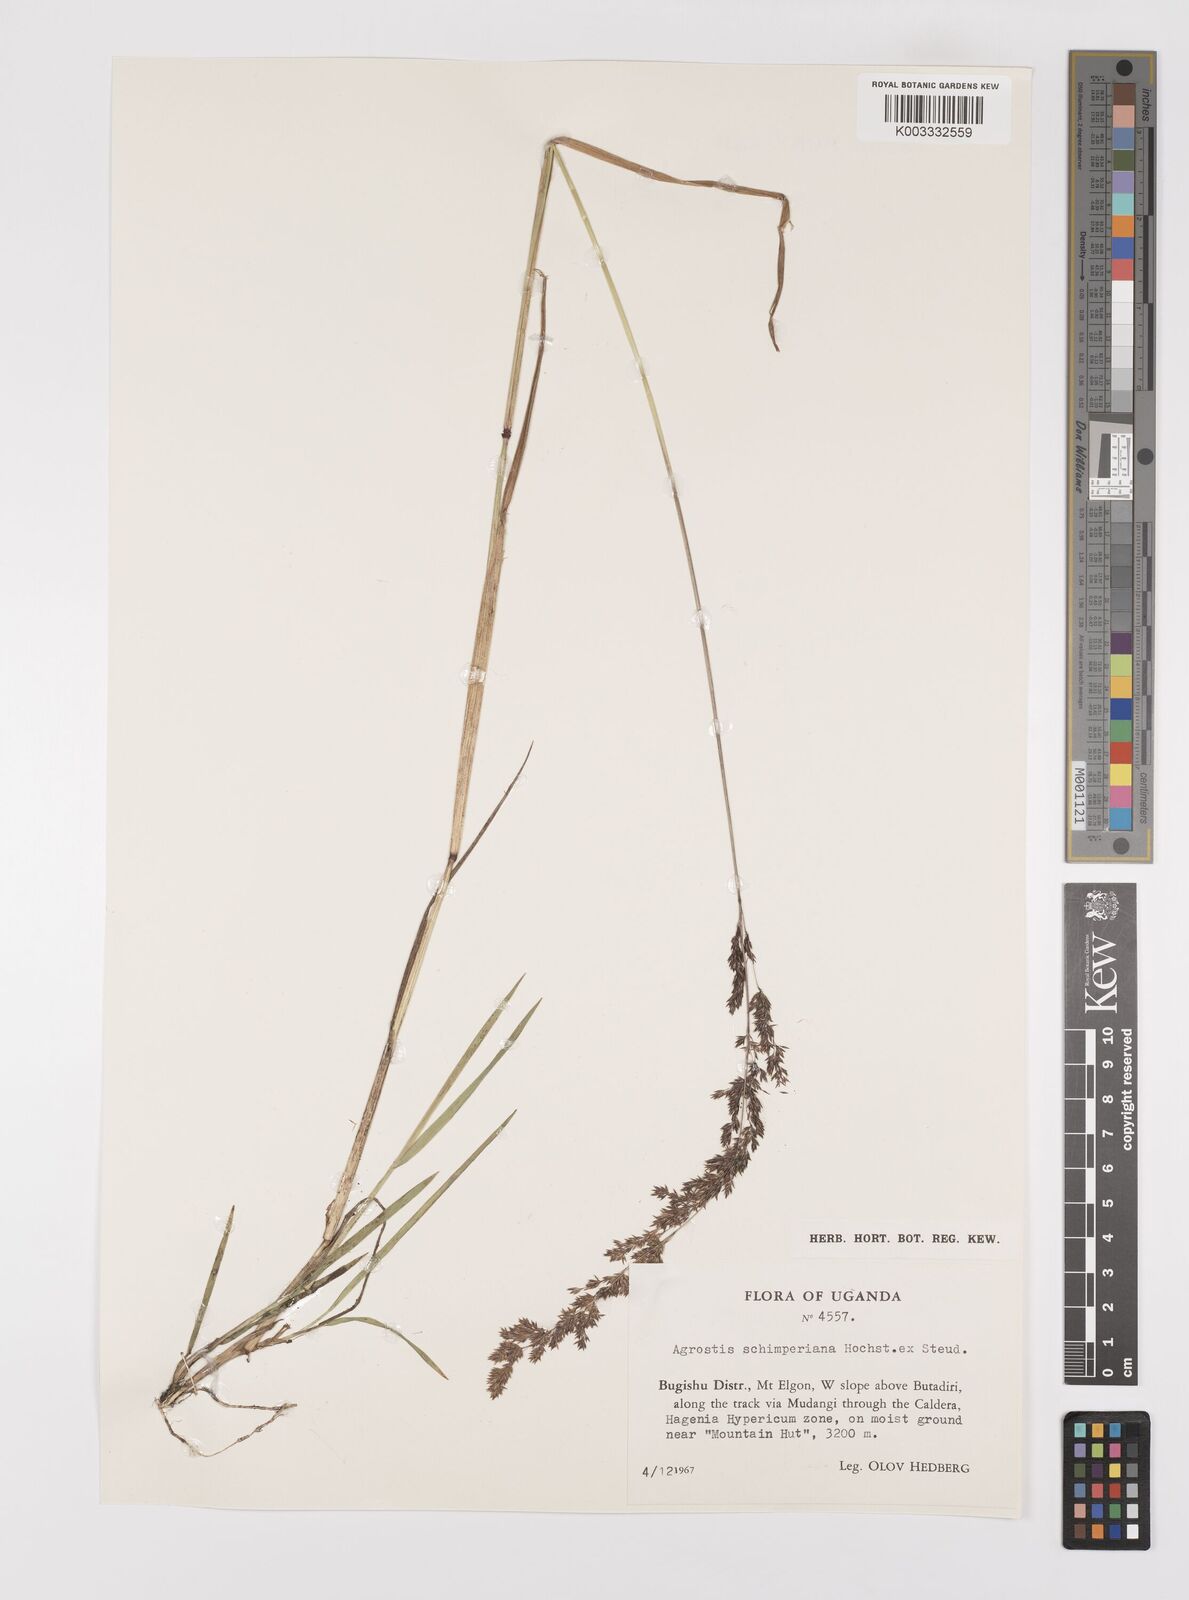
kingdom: Plantae
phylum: Tracheophyta
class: Liliopsida
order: Poales
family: Poaceae
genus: Polypogon
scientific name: Polypogon schimperianus
